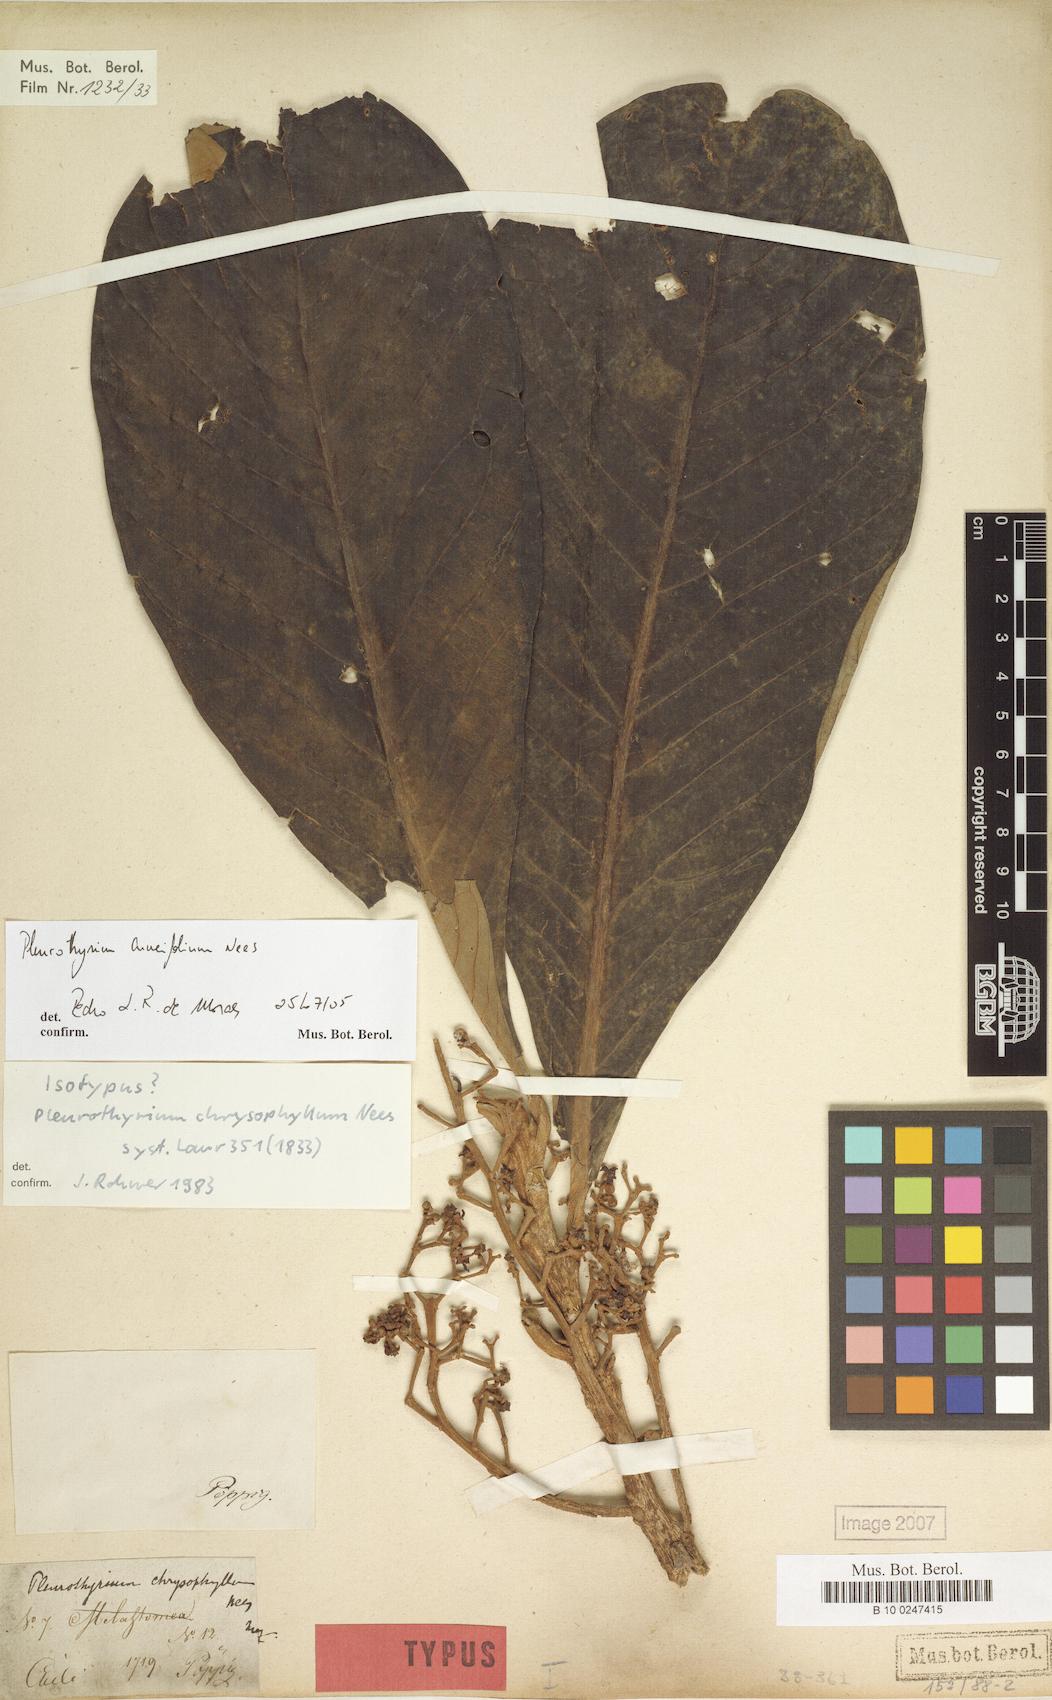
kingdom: Plantae
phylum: Tracheophyta
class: Magnoliopsida
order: Laurales
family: Lauraceae
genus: Pleurothyrium
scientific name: Pleurothyrium cuneifolium
